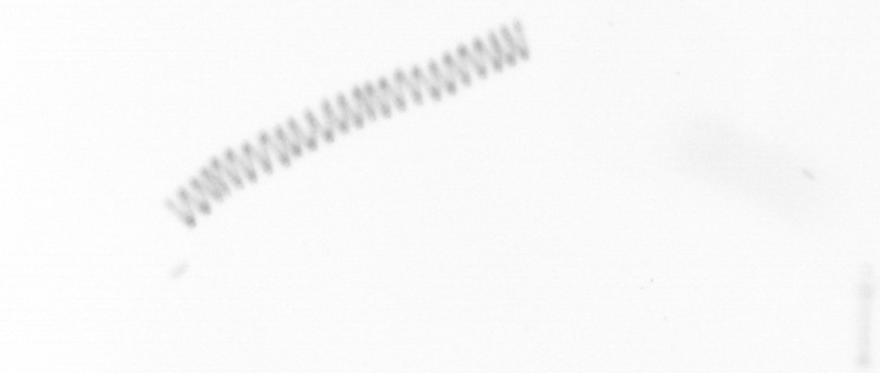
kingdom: Chromista
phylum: Ochrophyta
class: Bacillariophyceae
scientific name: Bacillariophyceae
